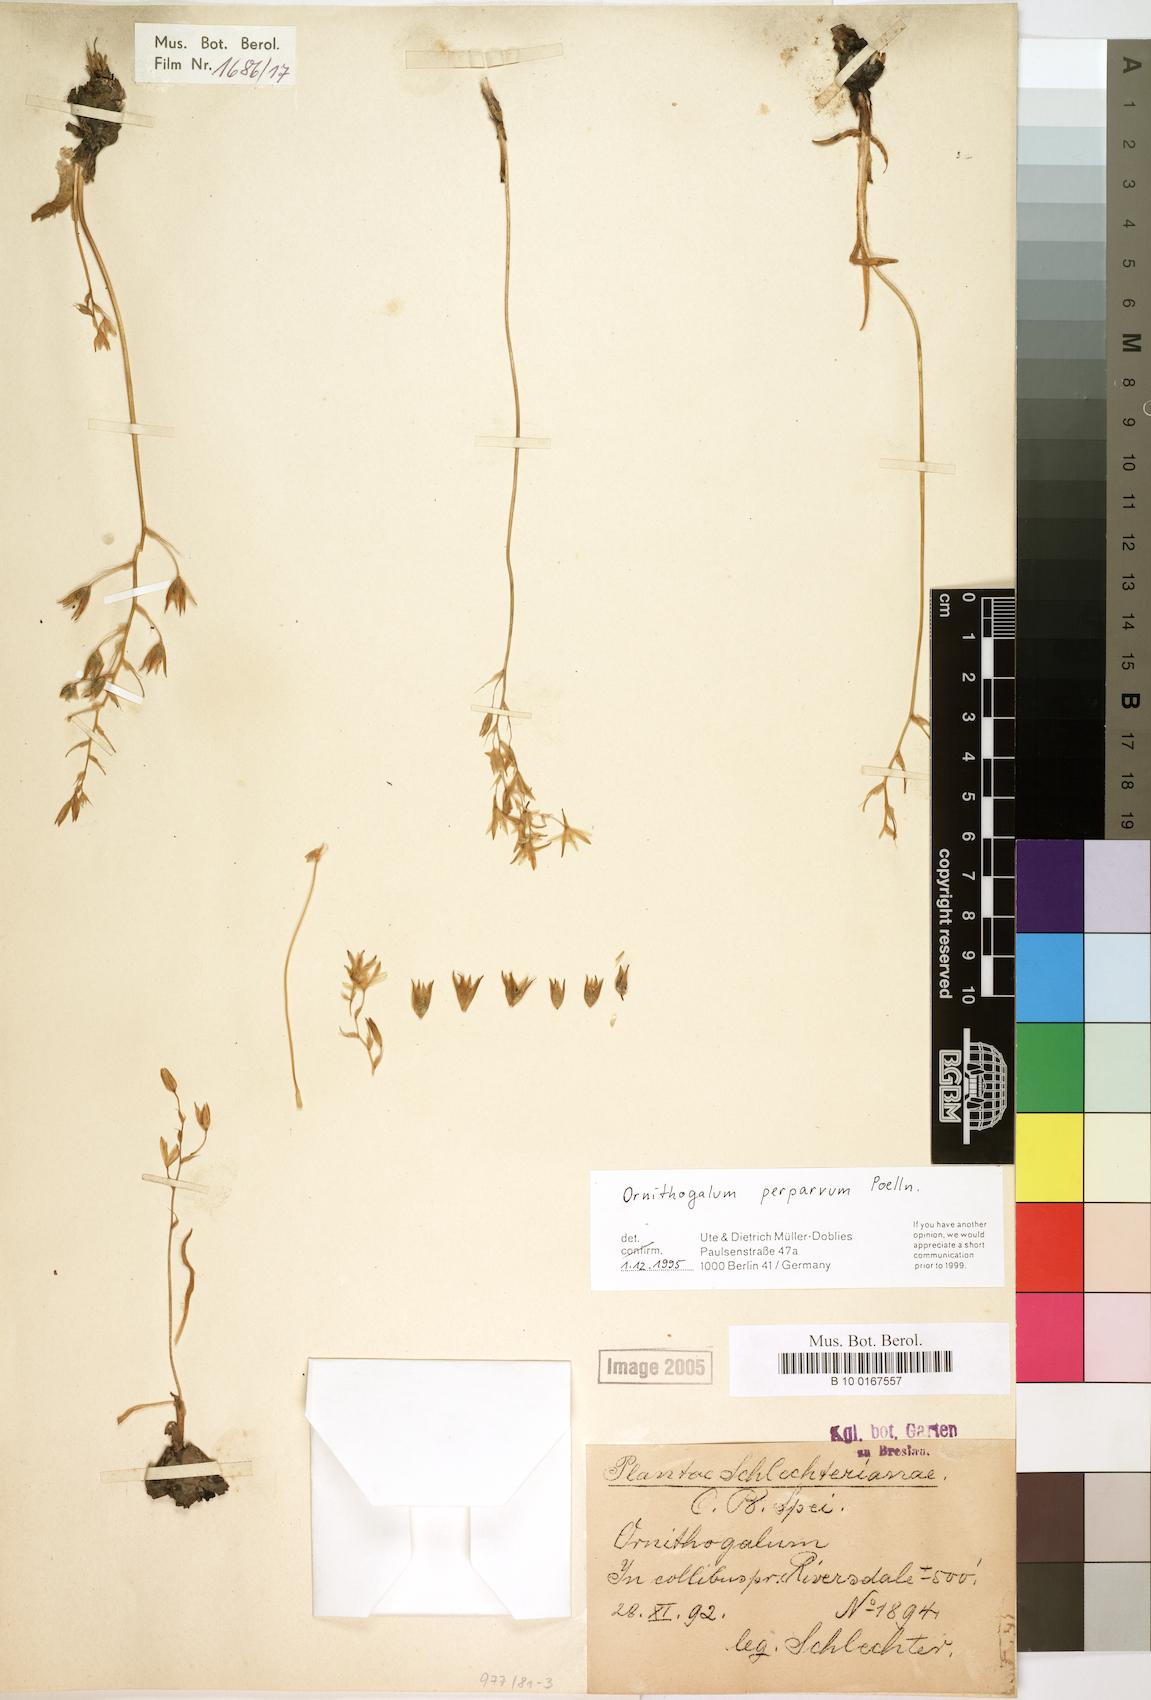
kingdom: Plantae
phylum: Tracheophyta
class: Liliopsida
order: Asparagales
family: Asparagaceae
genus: Ornithogalum
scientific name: Ornithogalum pilosum
